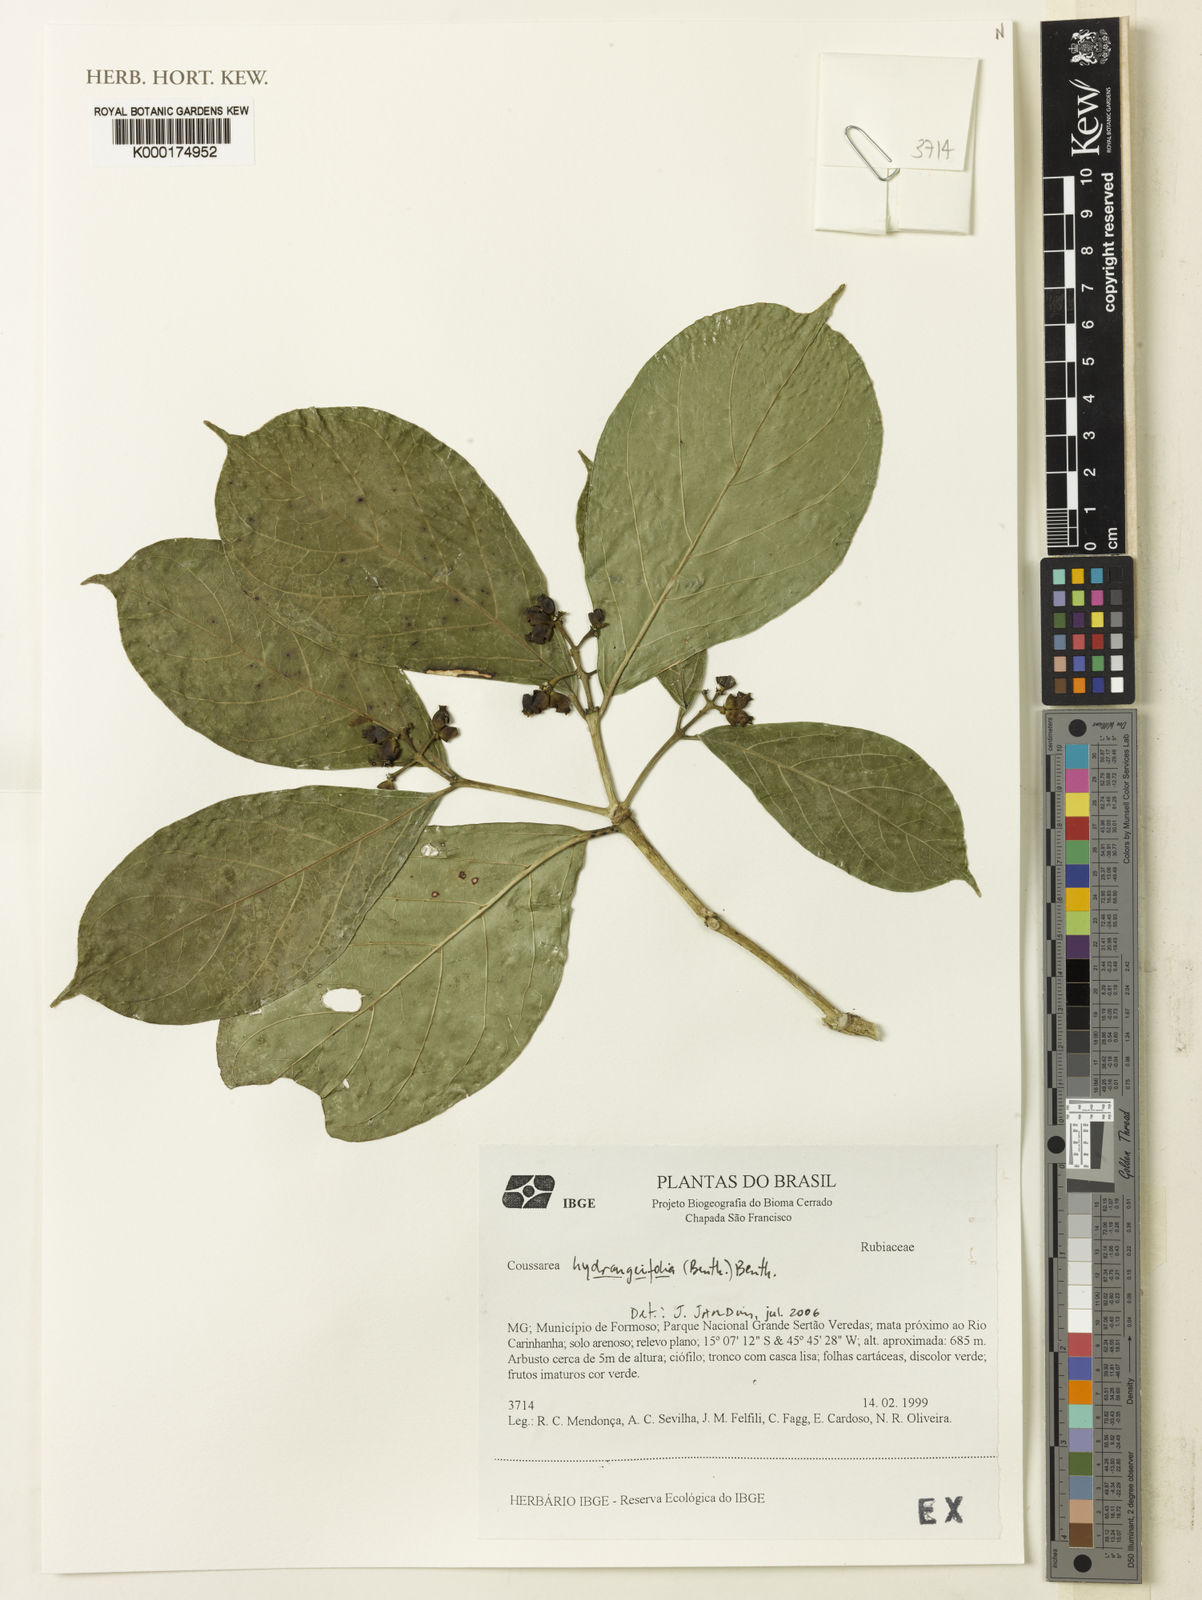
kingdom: Plantae
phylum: Tracheophyta
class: Magnoliopsida
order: Gentianales
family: Rubiaceae
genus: Coussarea
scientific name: Coussarea
